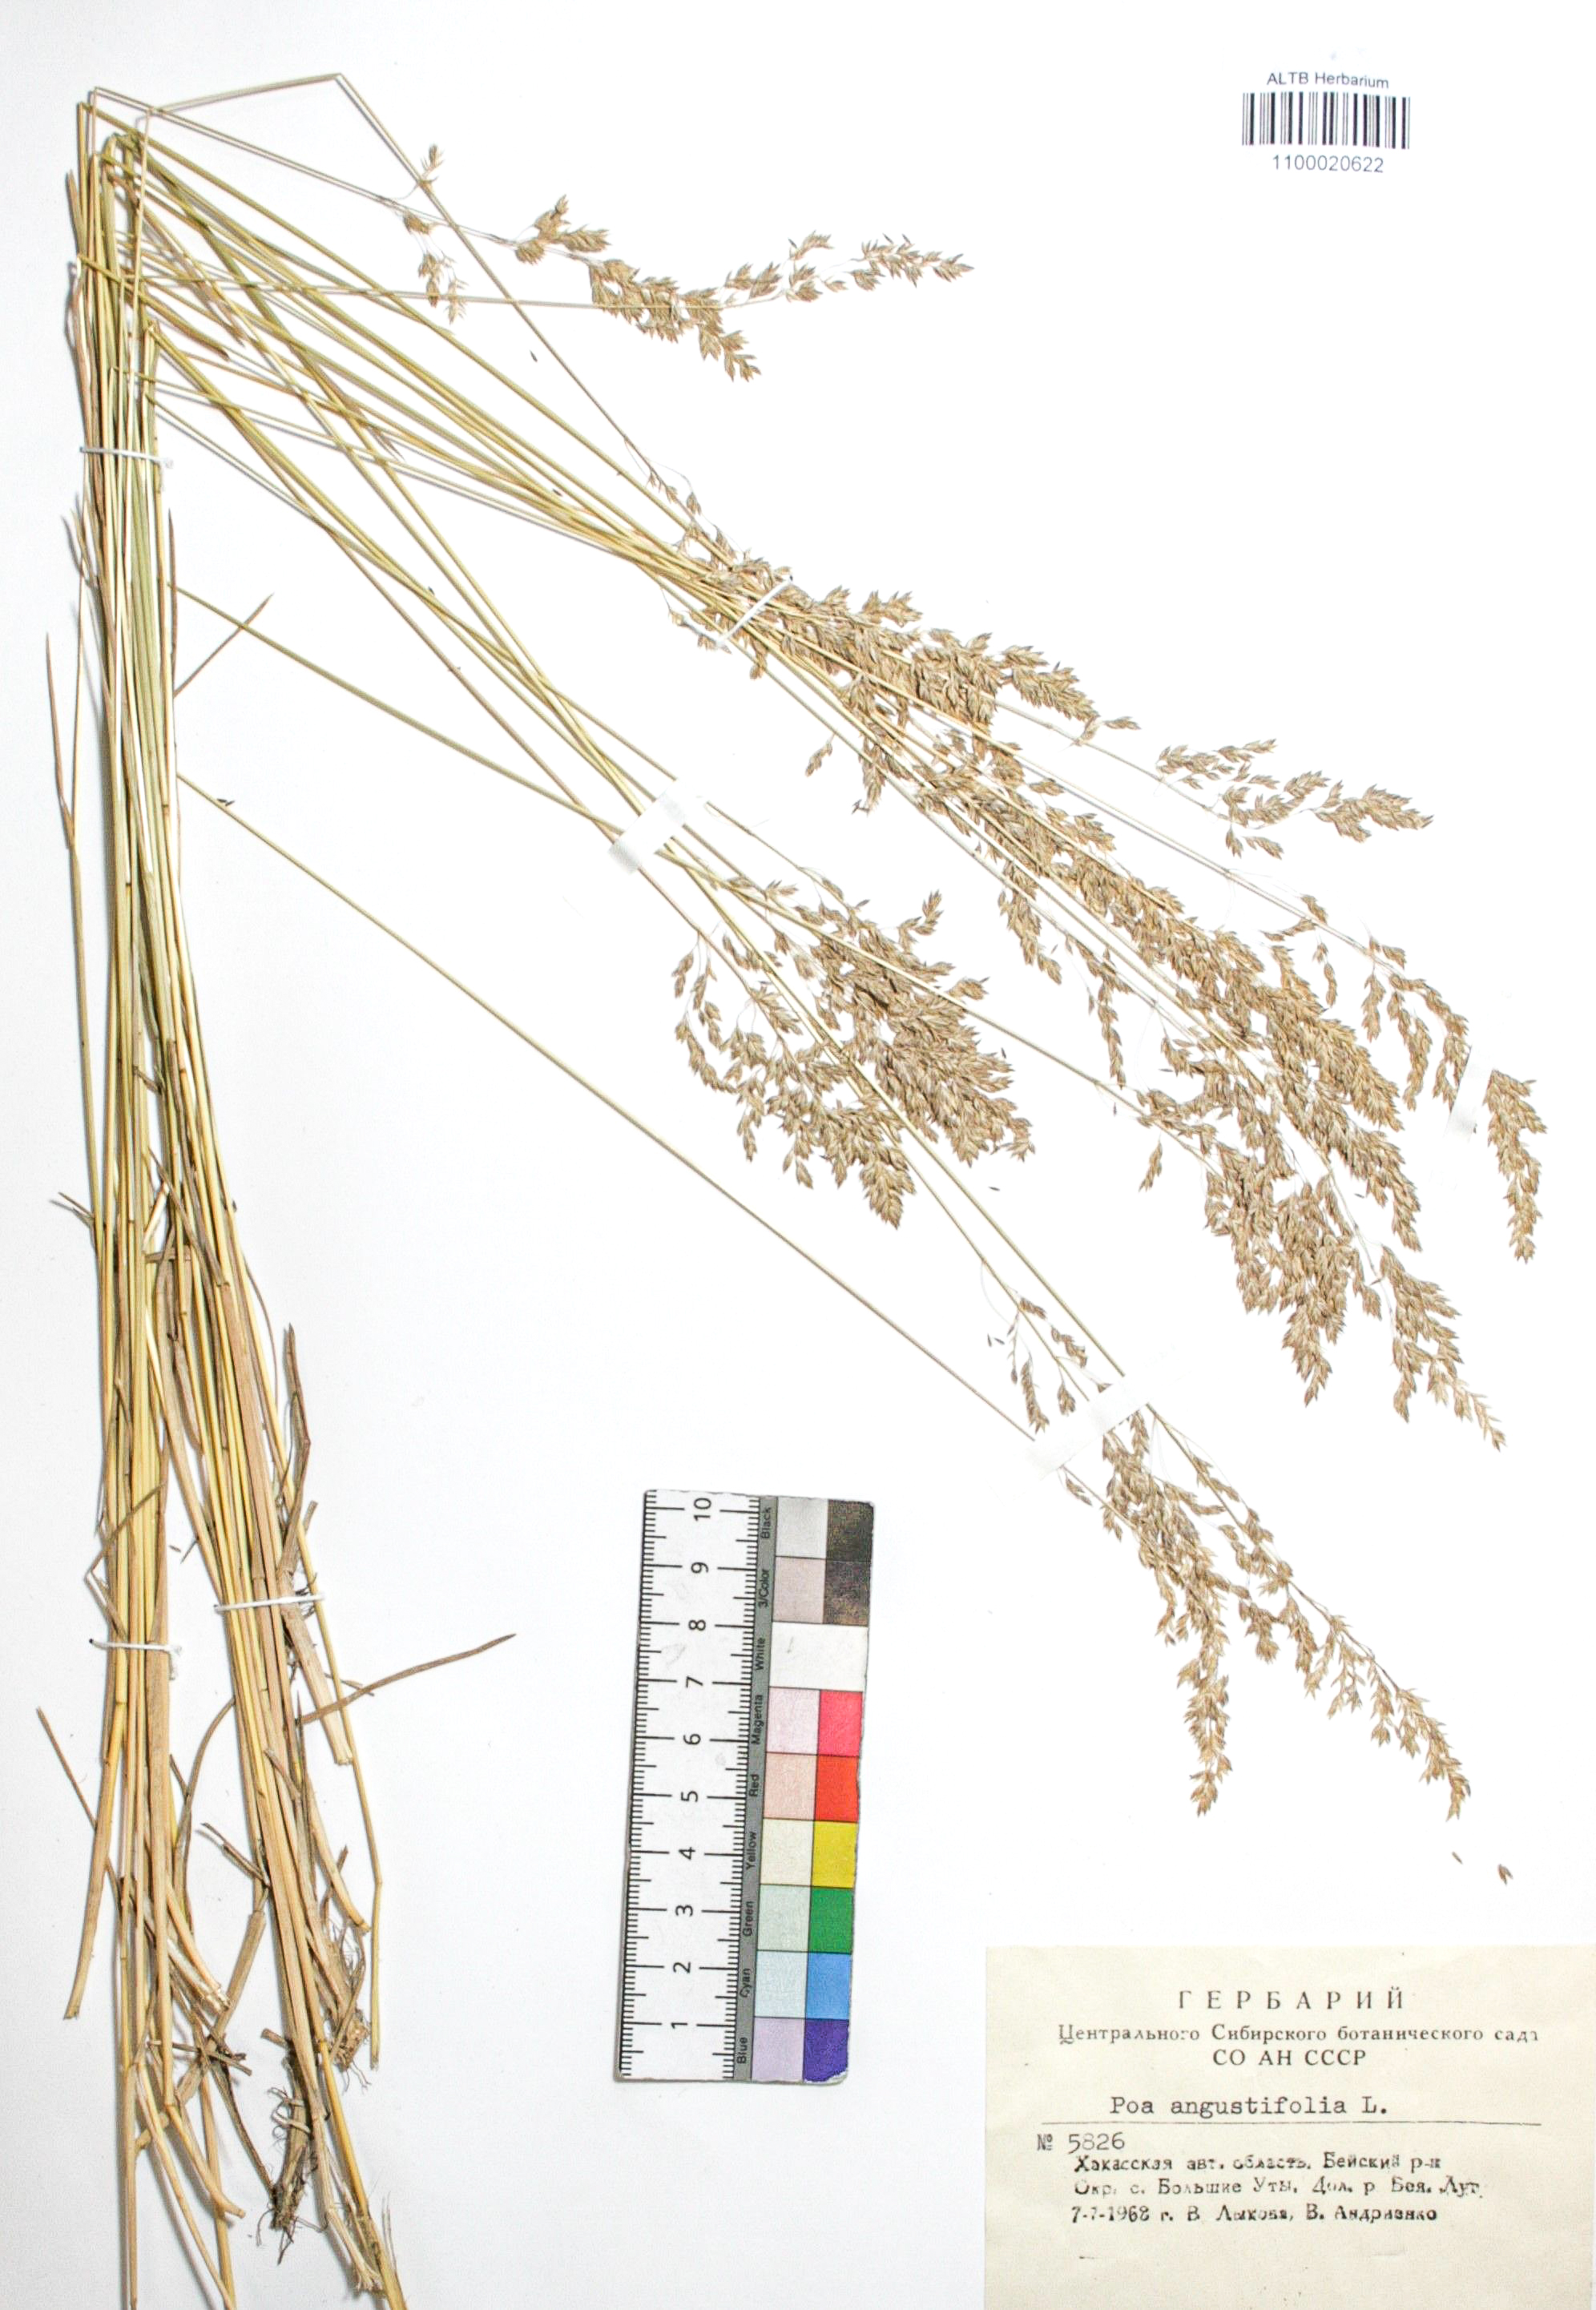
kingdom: Plantae
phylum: Tracheophyta
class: Liliopsida
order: Poales
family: Poaceae
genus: Poa
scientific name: Poa angustifolia
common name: Narrow-leaved meadow-grass
